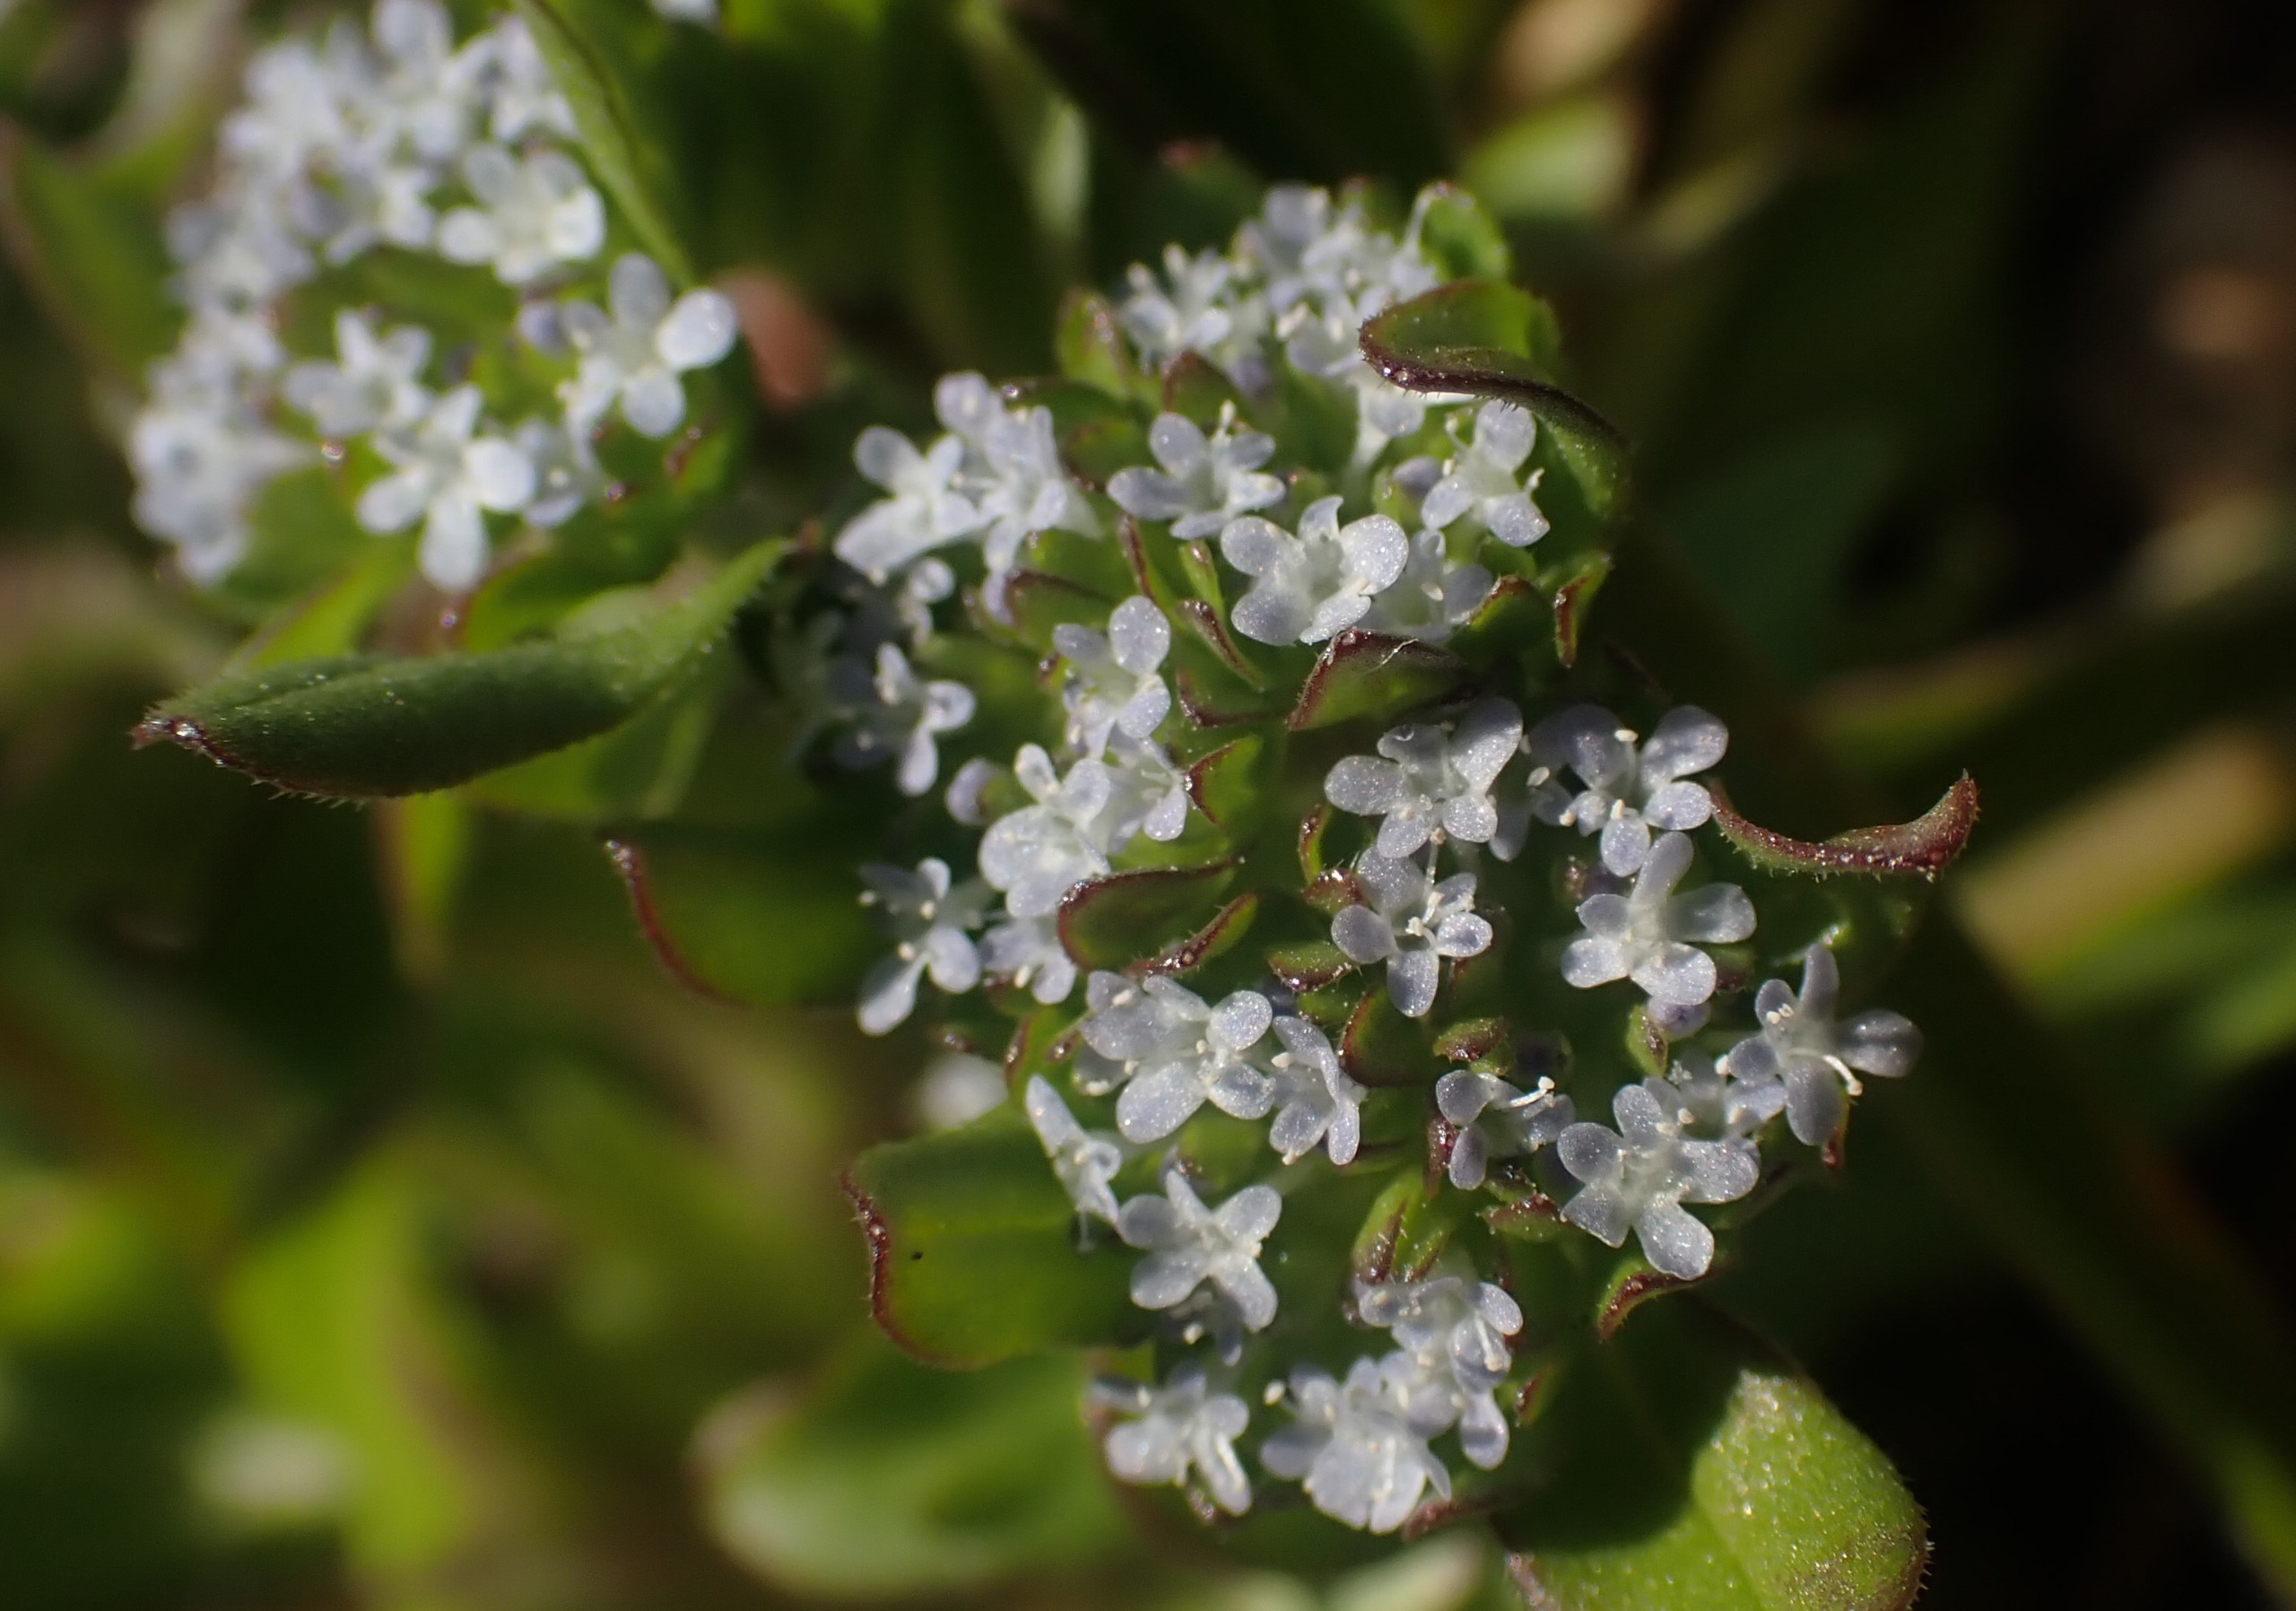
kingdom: Plantae
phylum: Tracheophyta
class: Magnoliopsida
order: Dipsacales
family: Caprifoliaceae
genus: Valerianella
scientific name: Valerianella locusta
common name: Tandfri vårsalat
